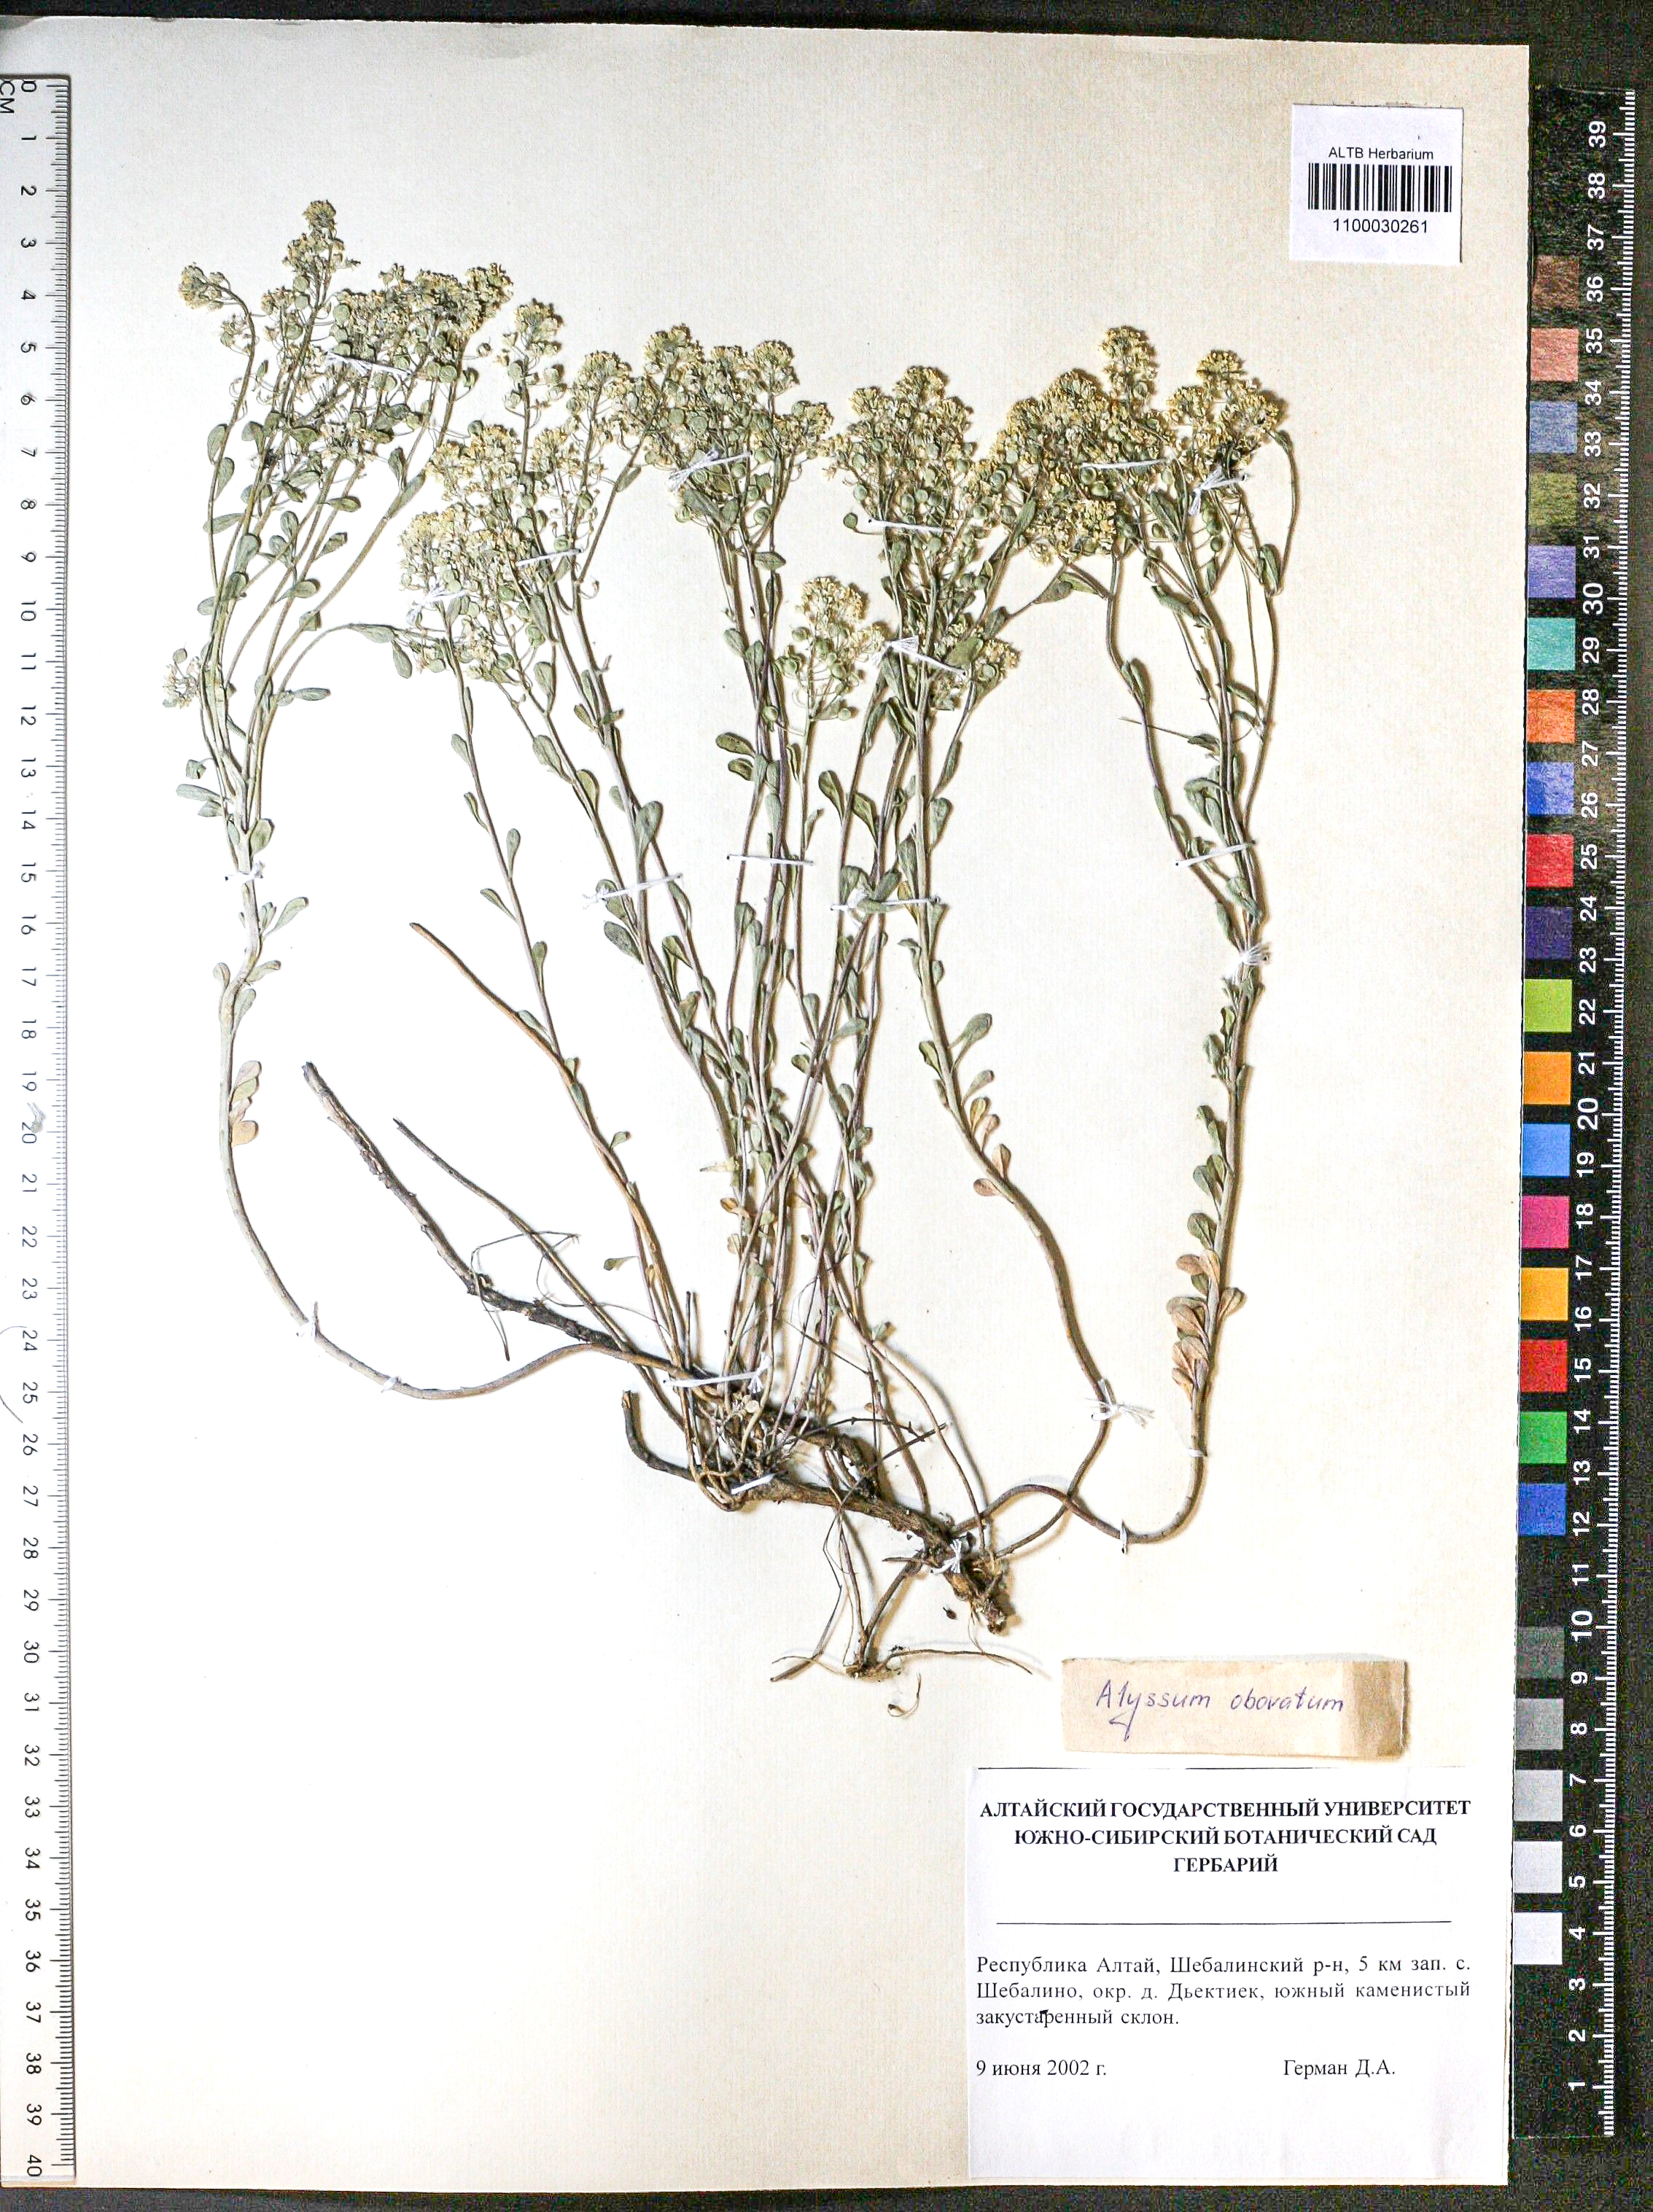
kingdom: Plantae
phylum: Tracheophyta
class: Magnoliopsida
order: Brassicales
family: Brassicaceae
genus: Odontarrhena
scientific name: Odontarrhena obovata
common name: American alyssum
